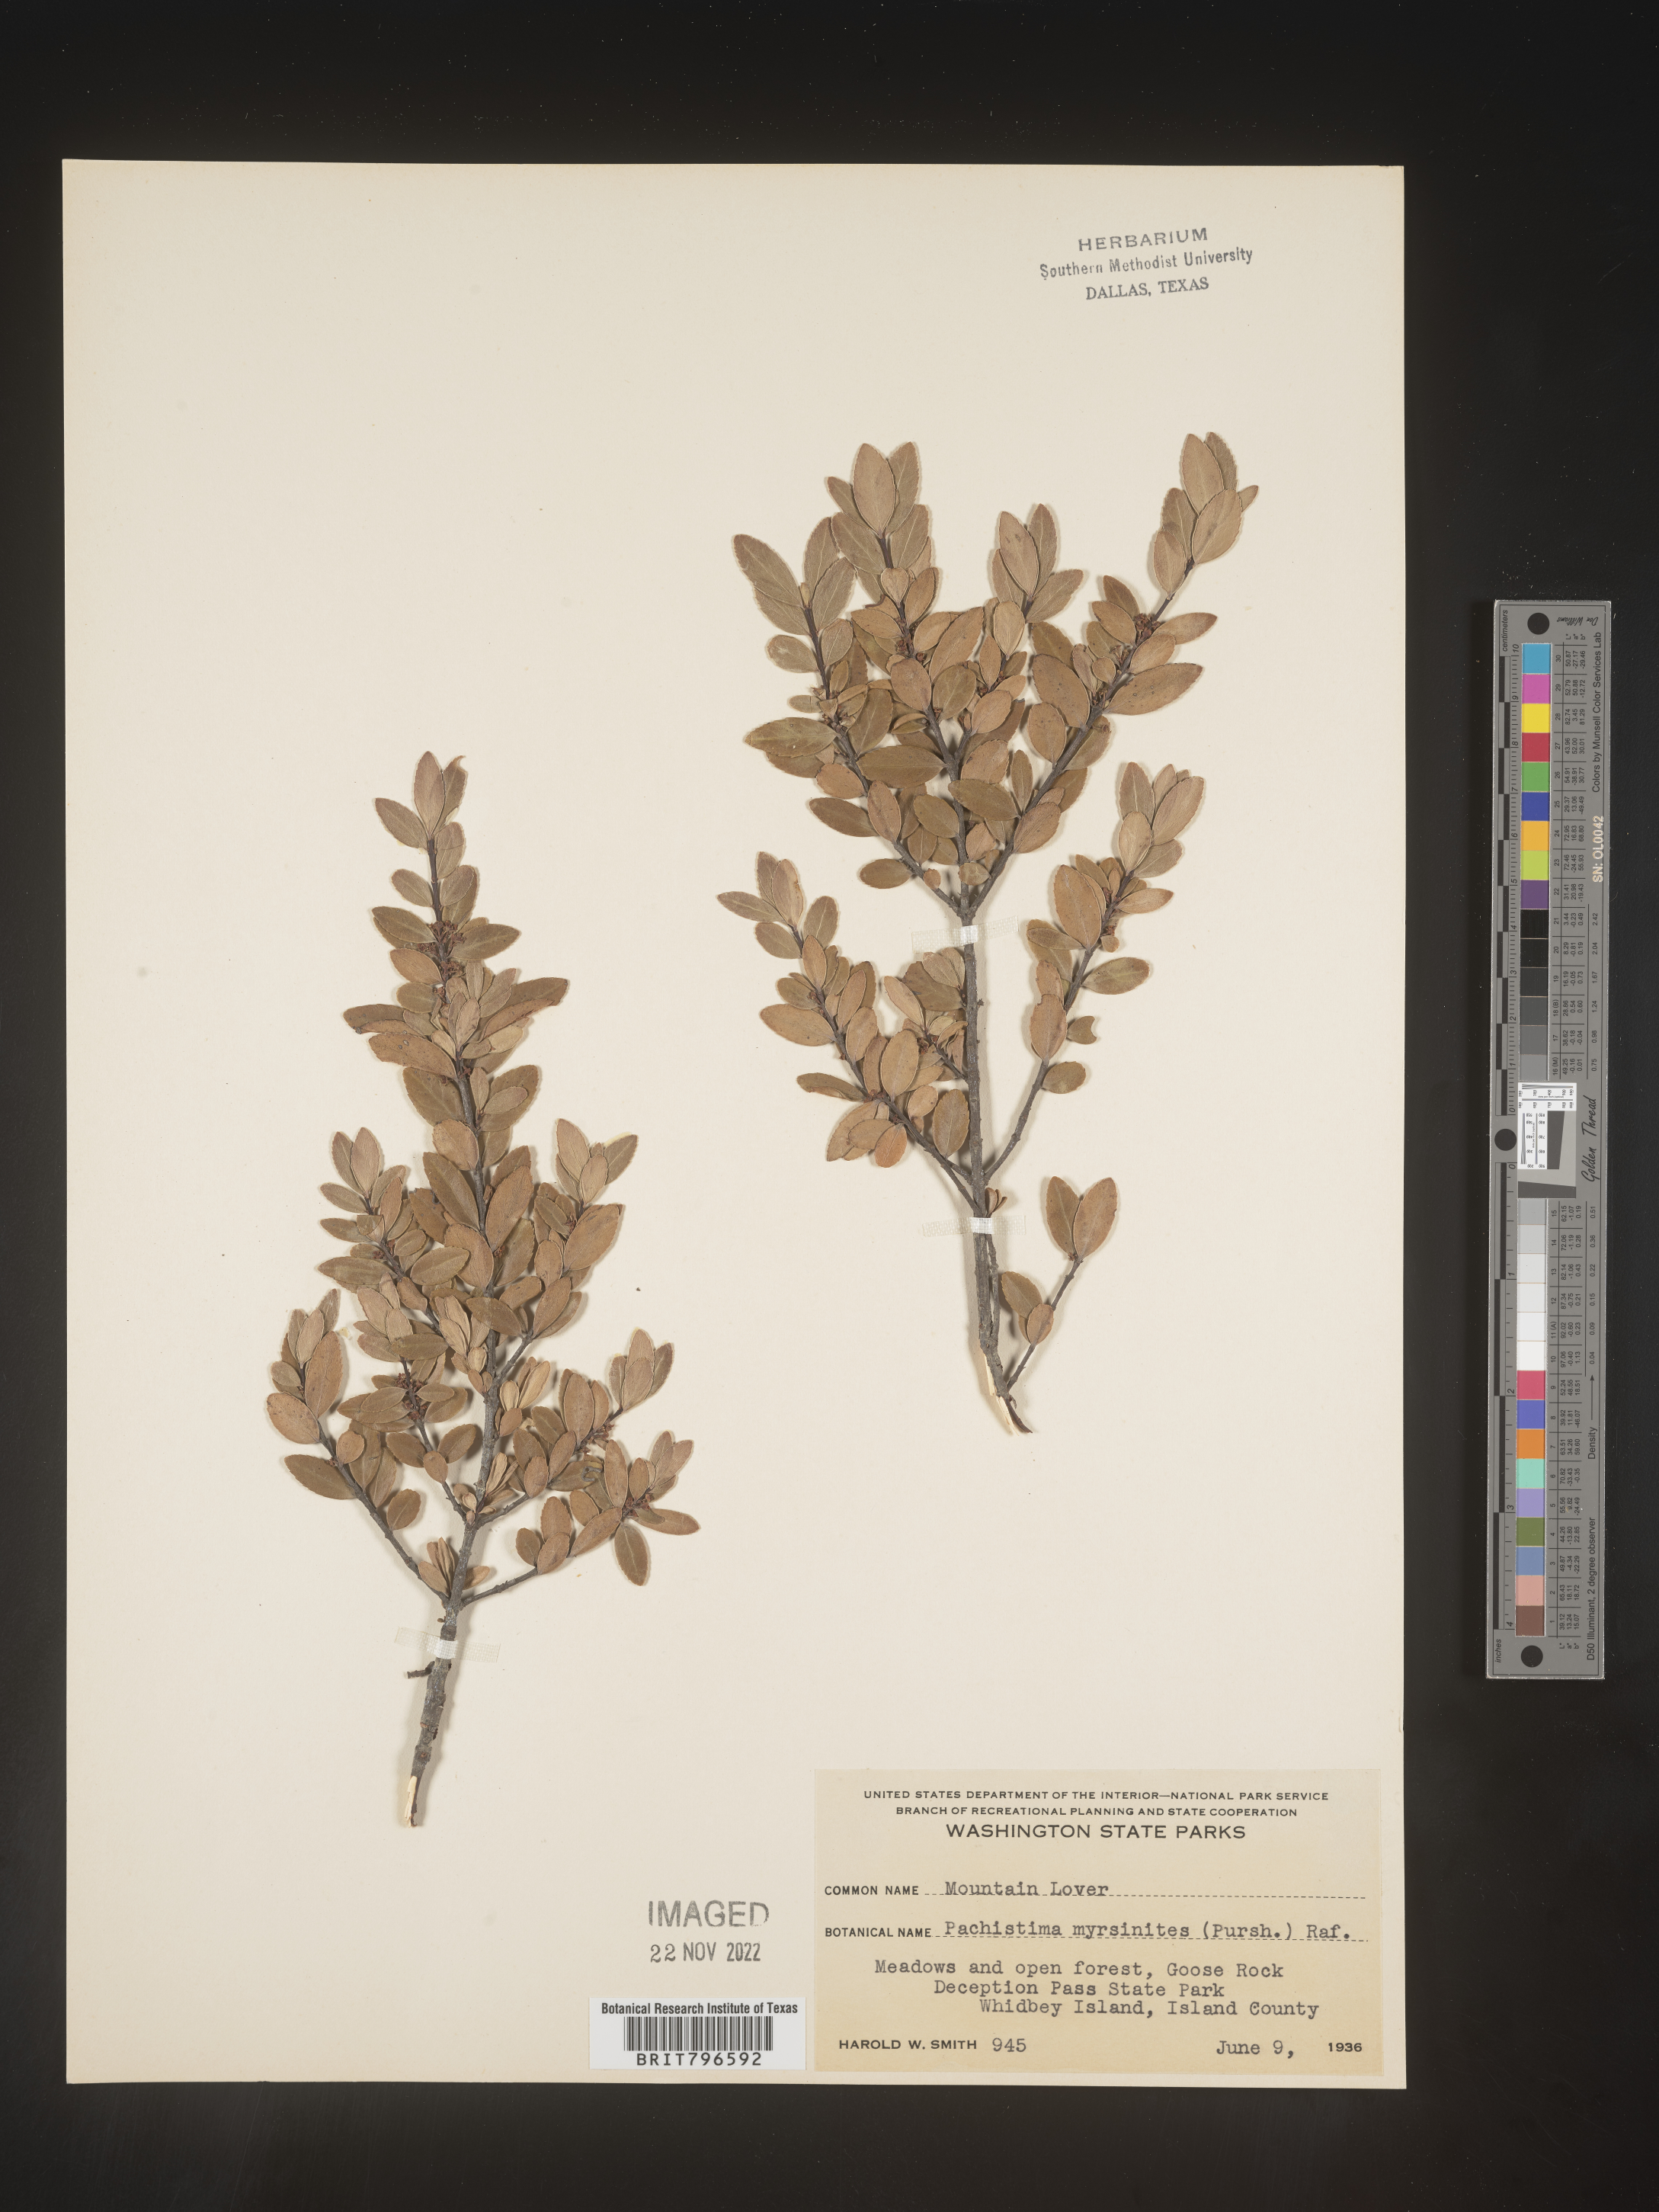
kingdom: Plantae
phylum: Tracheophyta
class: Magnoliopsida
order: Celastrales
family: Celastraceae
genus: Paxistima
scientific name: Paxistima myrsinites
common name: Mountain-lover
